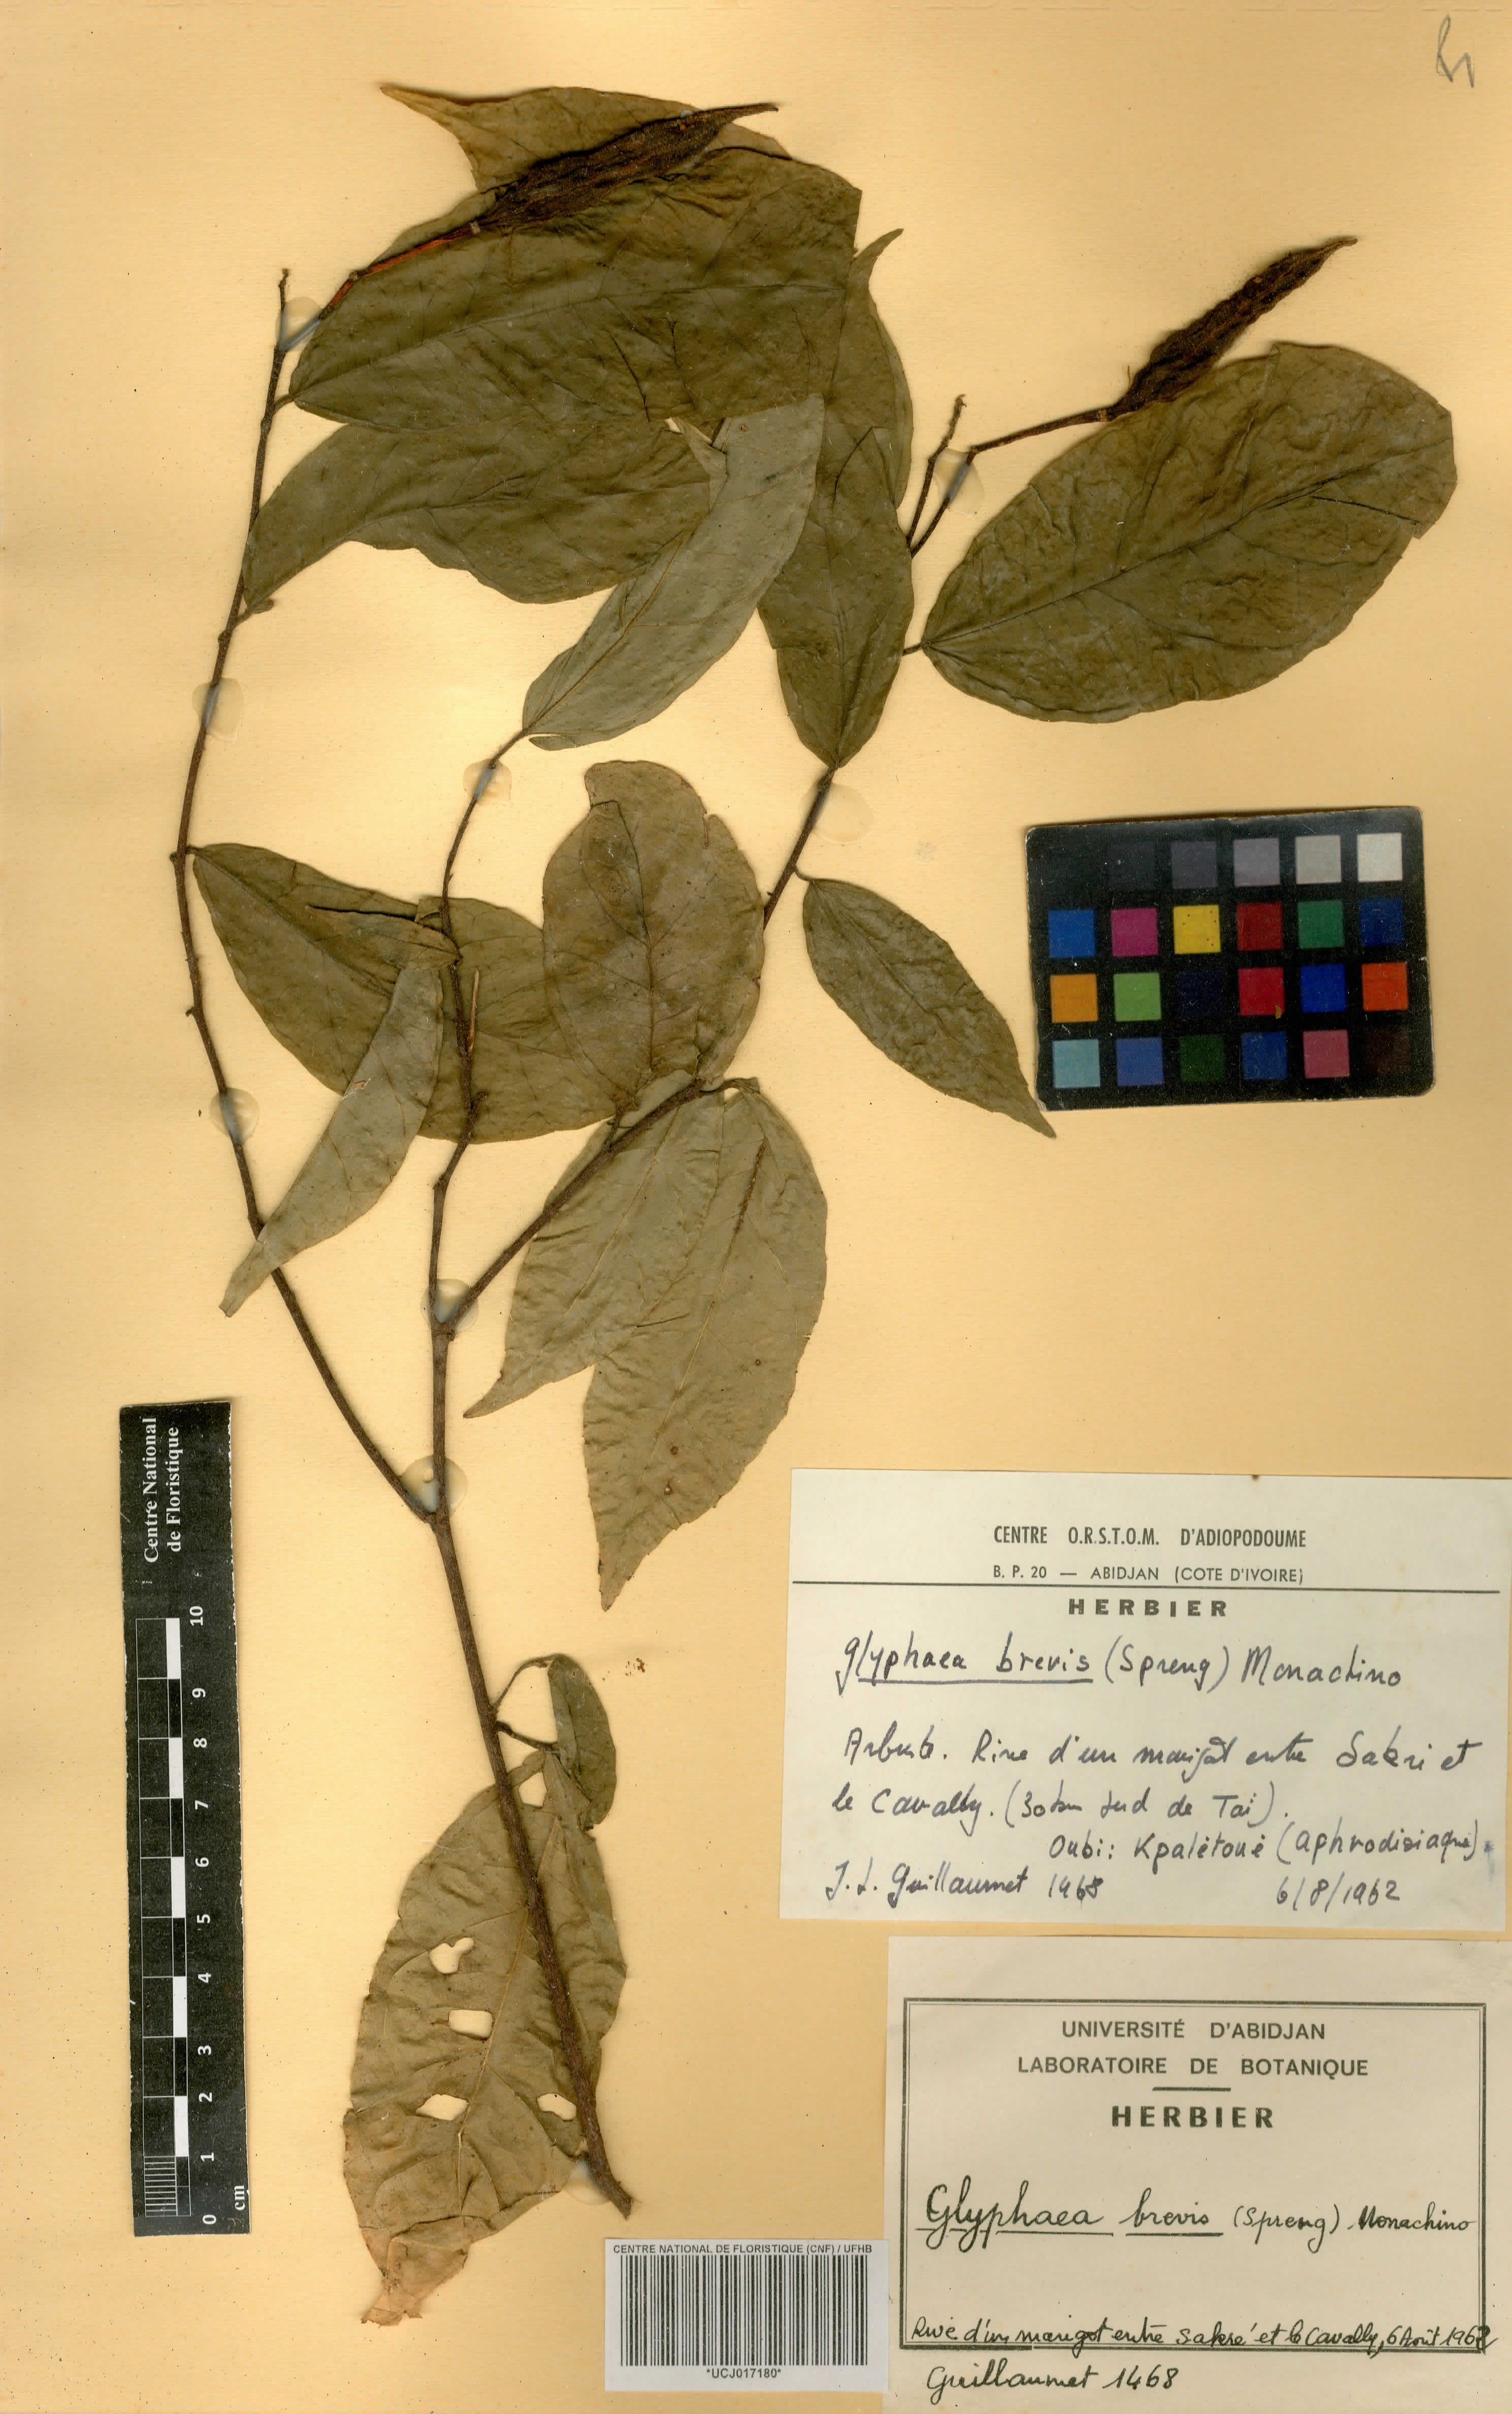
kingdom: Plantae
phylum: Tracheophyta
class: Magnoliopsida
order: Malvales
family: Malvaceae
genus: Glyphaea
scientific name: Glyphaea brevis
